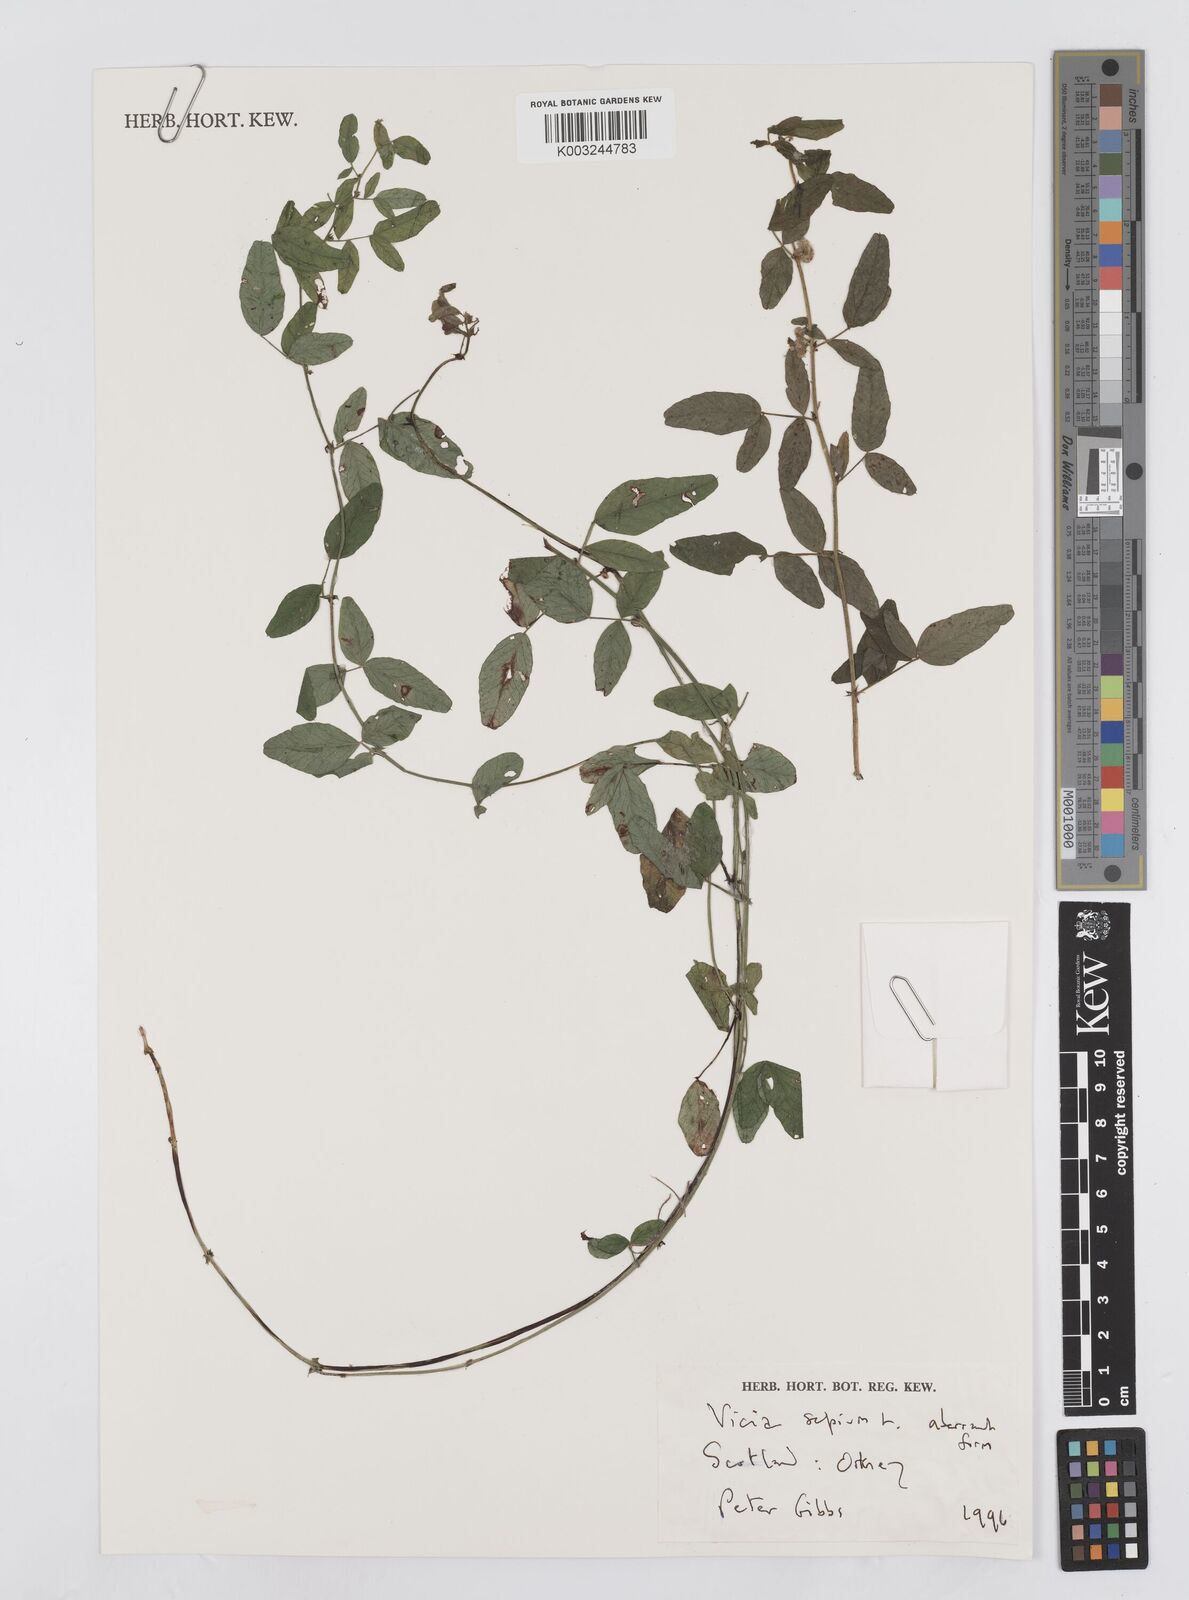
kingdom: Plantae
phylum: Tracheophyta
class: Magnoliopsida
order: Fabales
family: Fabaceae
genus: Vicia
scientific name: Vicia sepium
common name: Bush vetch
